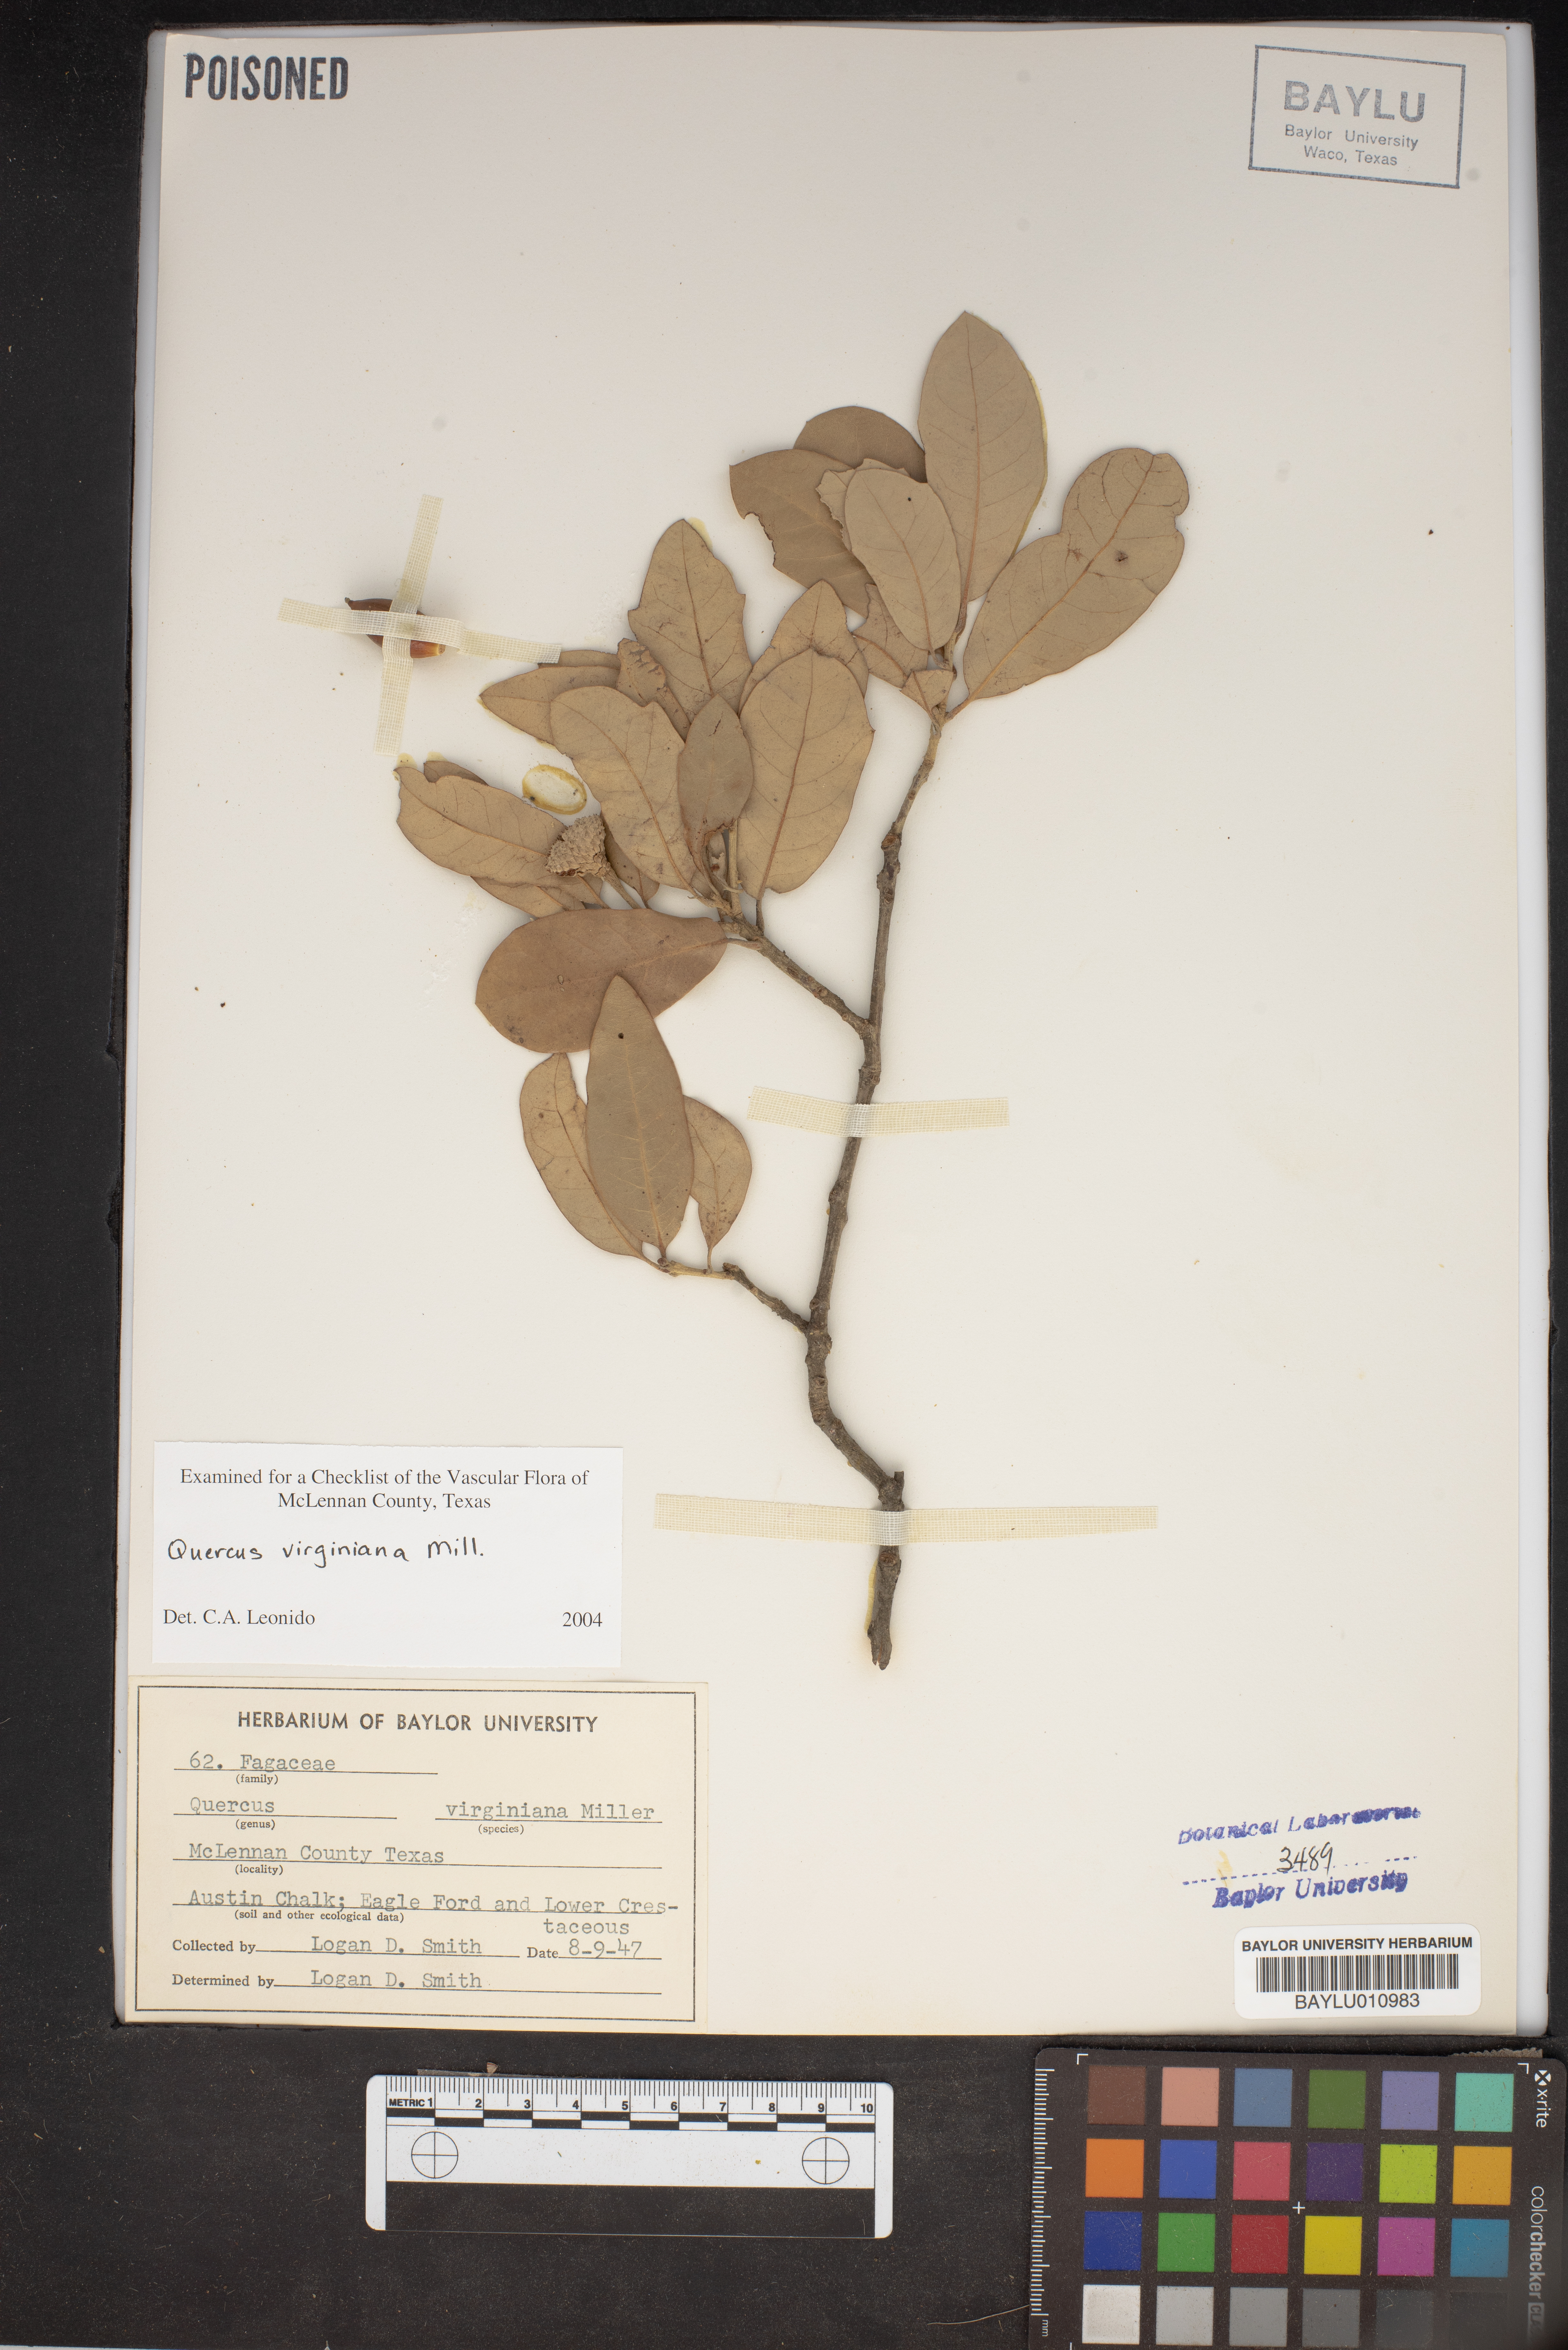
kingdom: Plantae
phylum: Tracheophyta
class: Magnoliopsida
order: Fagales
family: Fagaceae
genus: Quercus
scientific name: Quercus virginiana
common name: Southern live oak
